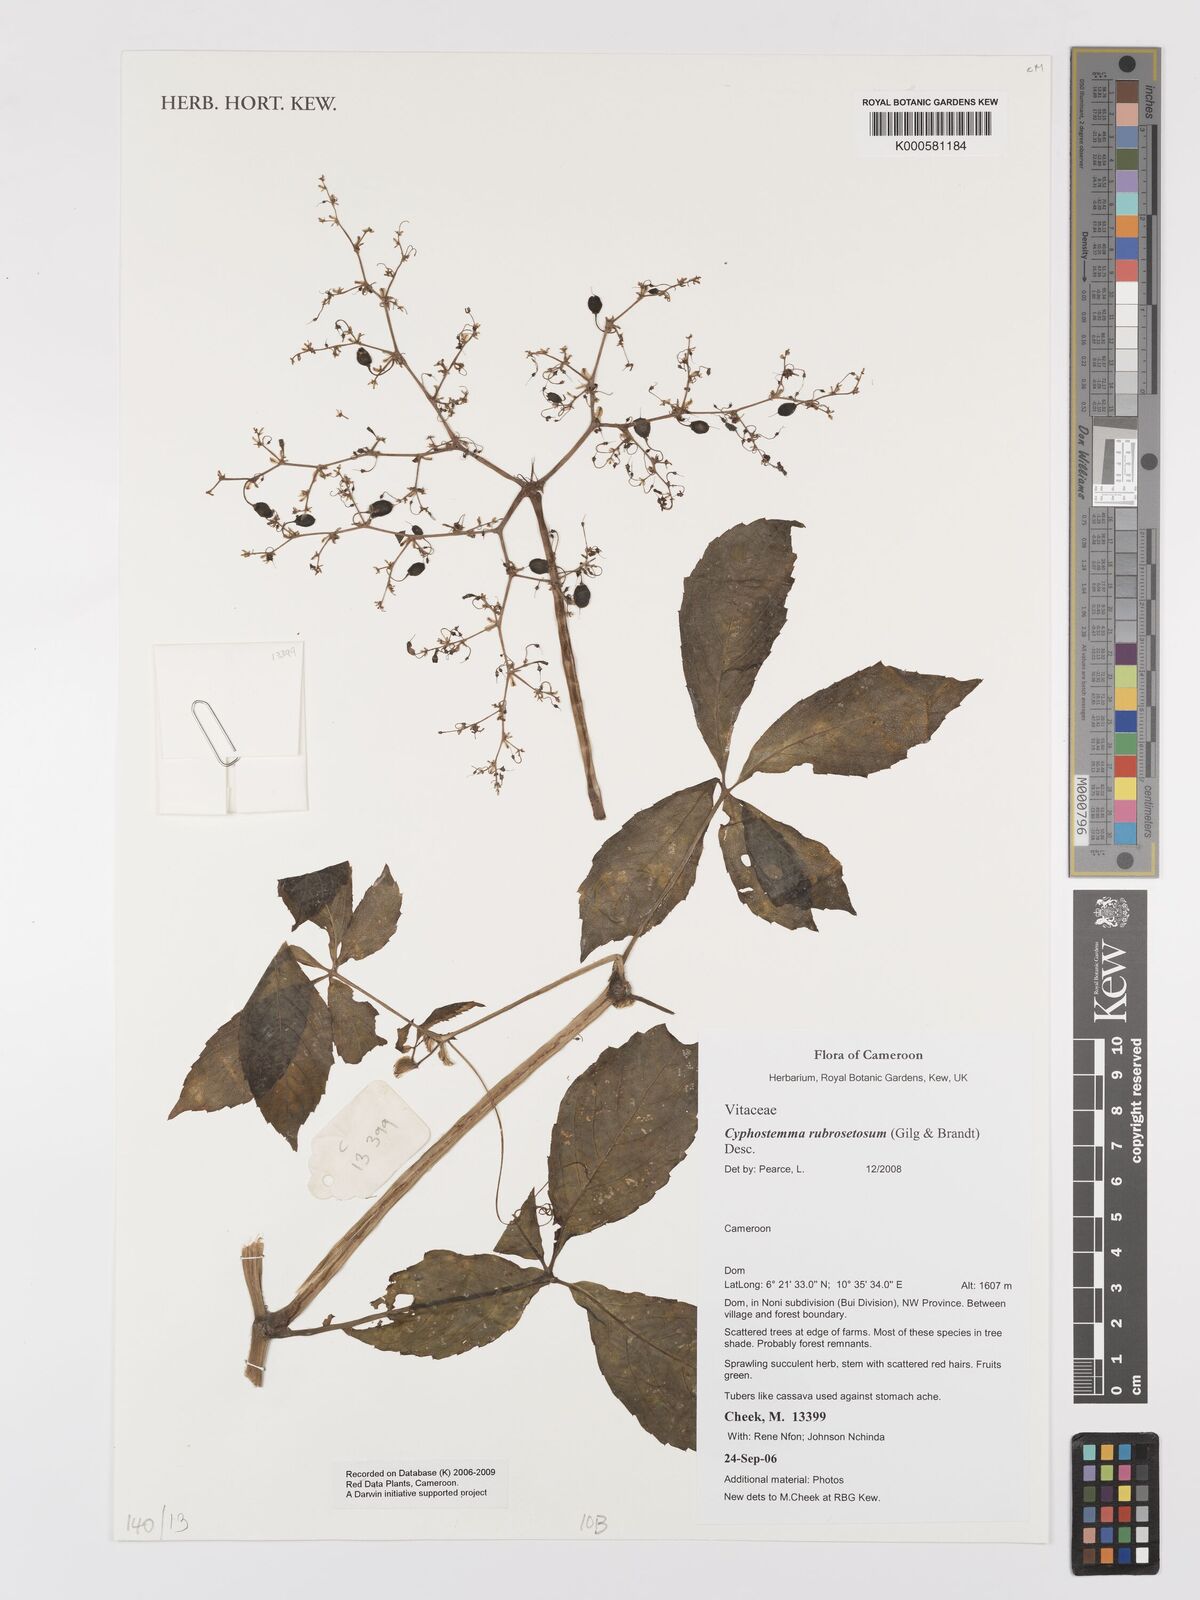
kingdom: Plantae
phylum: Tracheophyta
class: Magnoliopsida
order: Vitales
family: Vitaceae
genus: Cyphostemma
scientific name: Cyphostemma rubrosetosum
